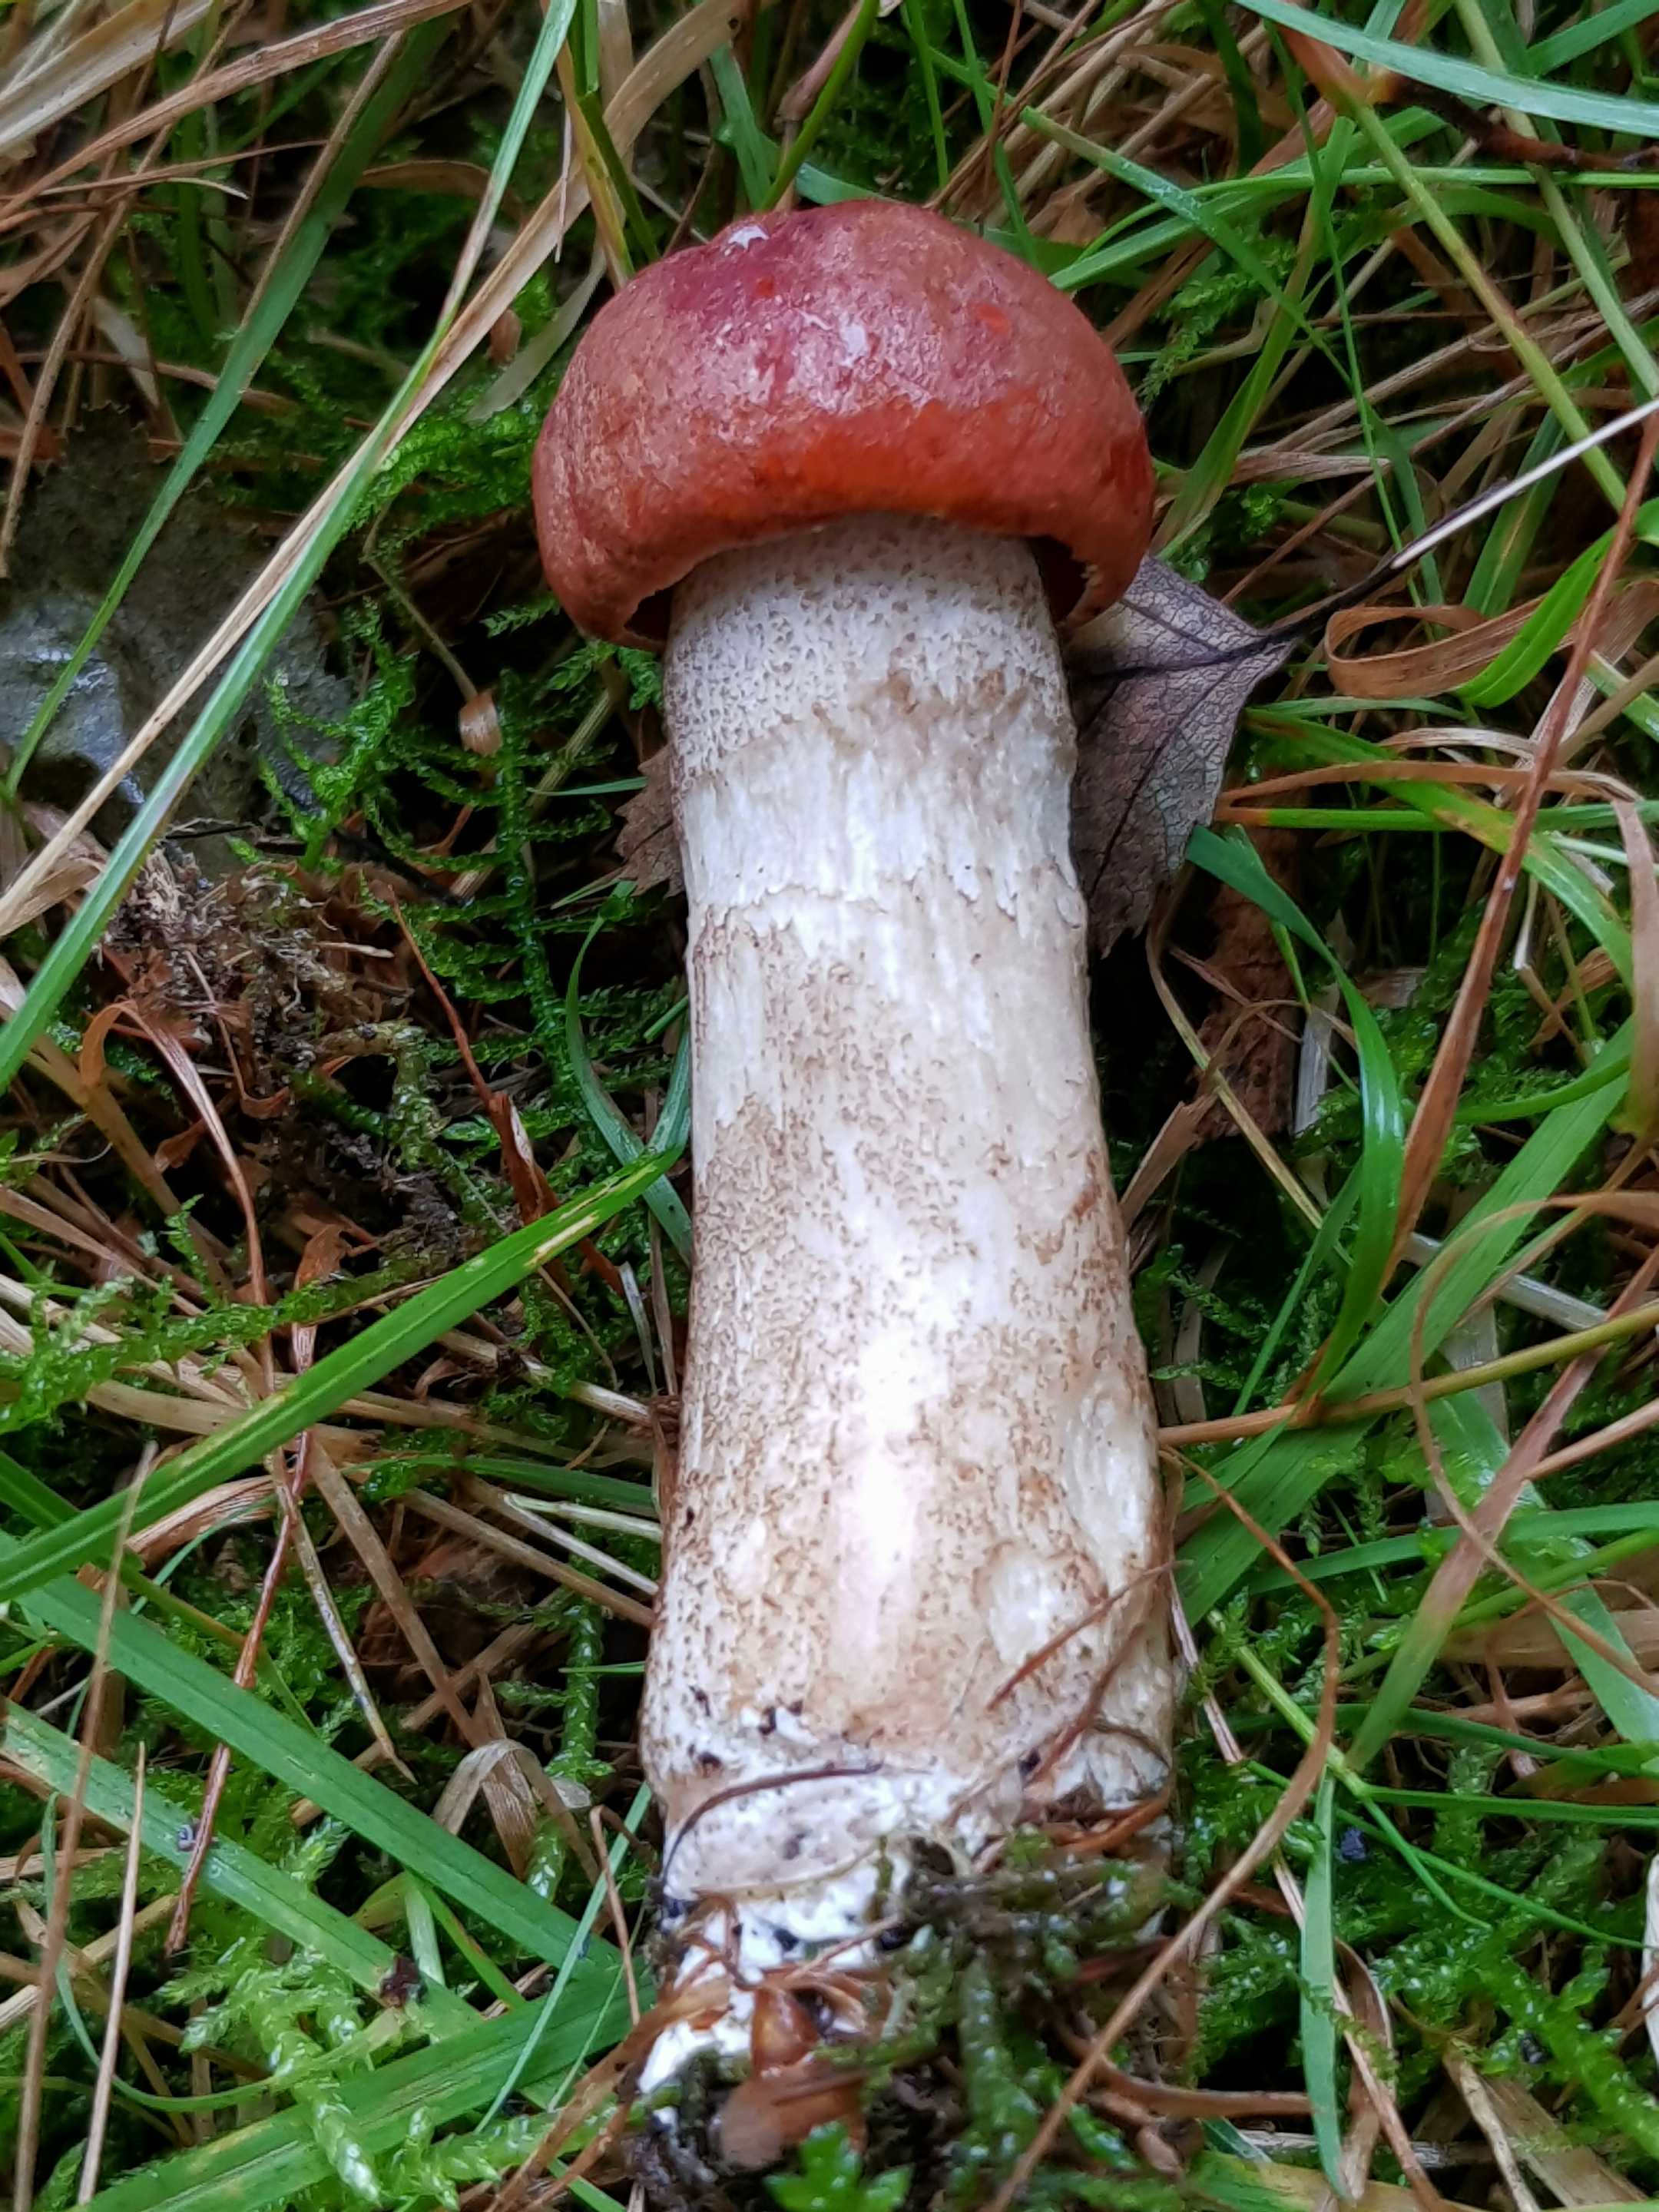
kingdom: Fungi
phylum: Basidiomycota
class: Agaricomycetes
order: Boletales
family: Boletaceae
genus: Leccinum
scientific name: Leccinum aurantiacum
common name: rustrød skælrørhat
